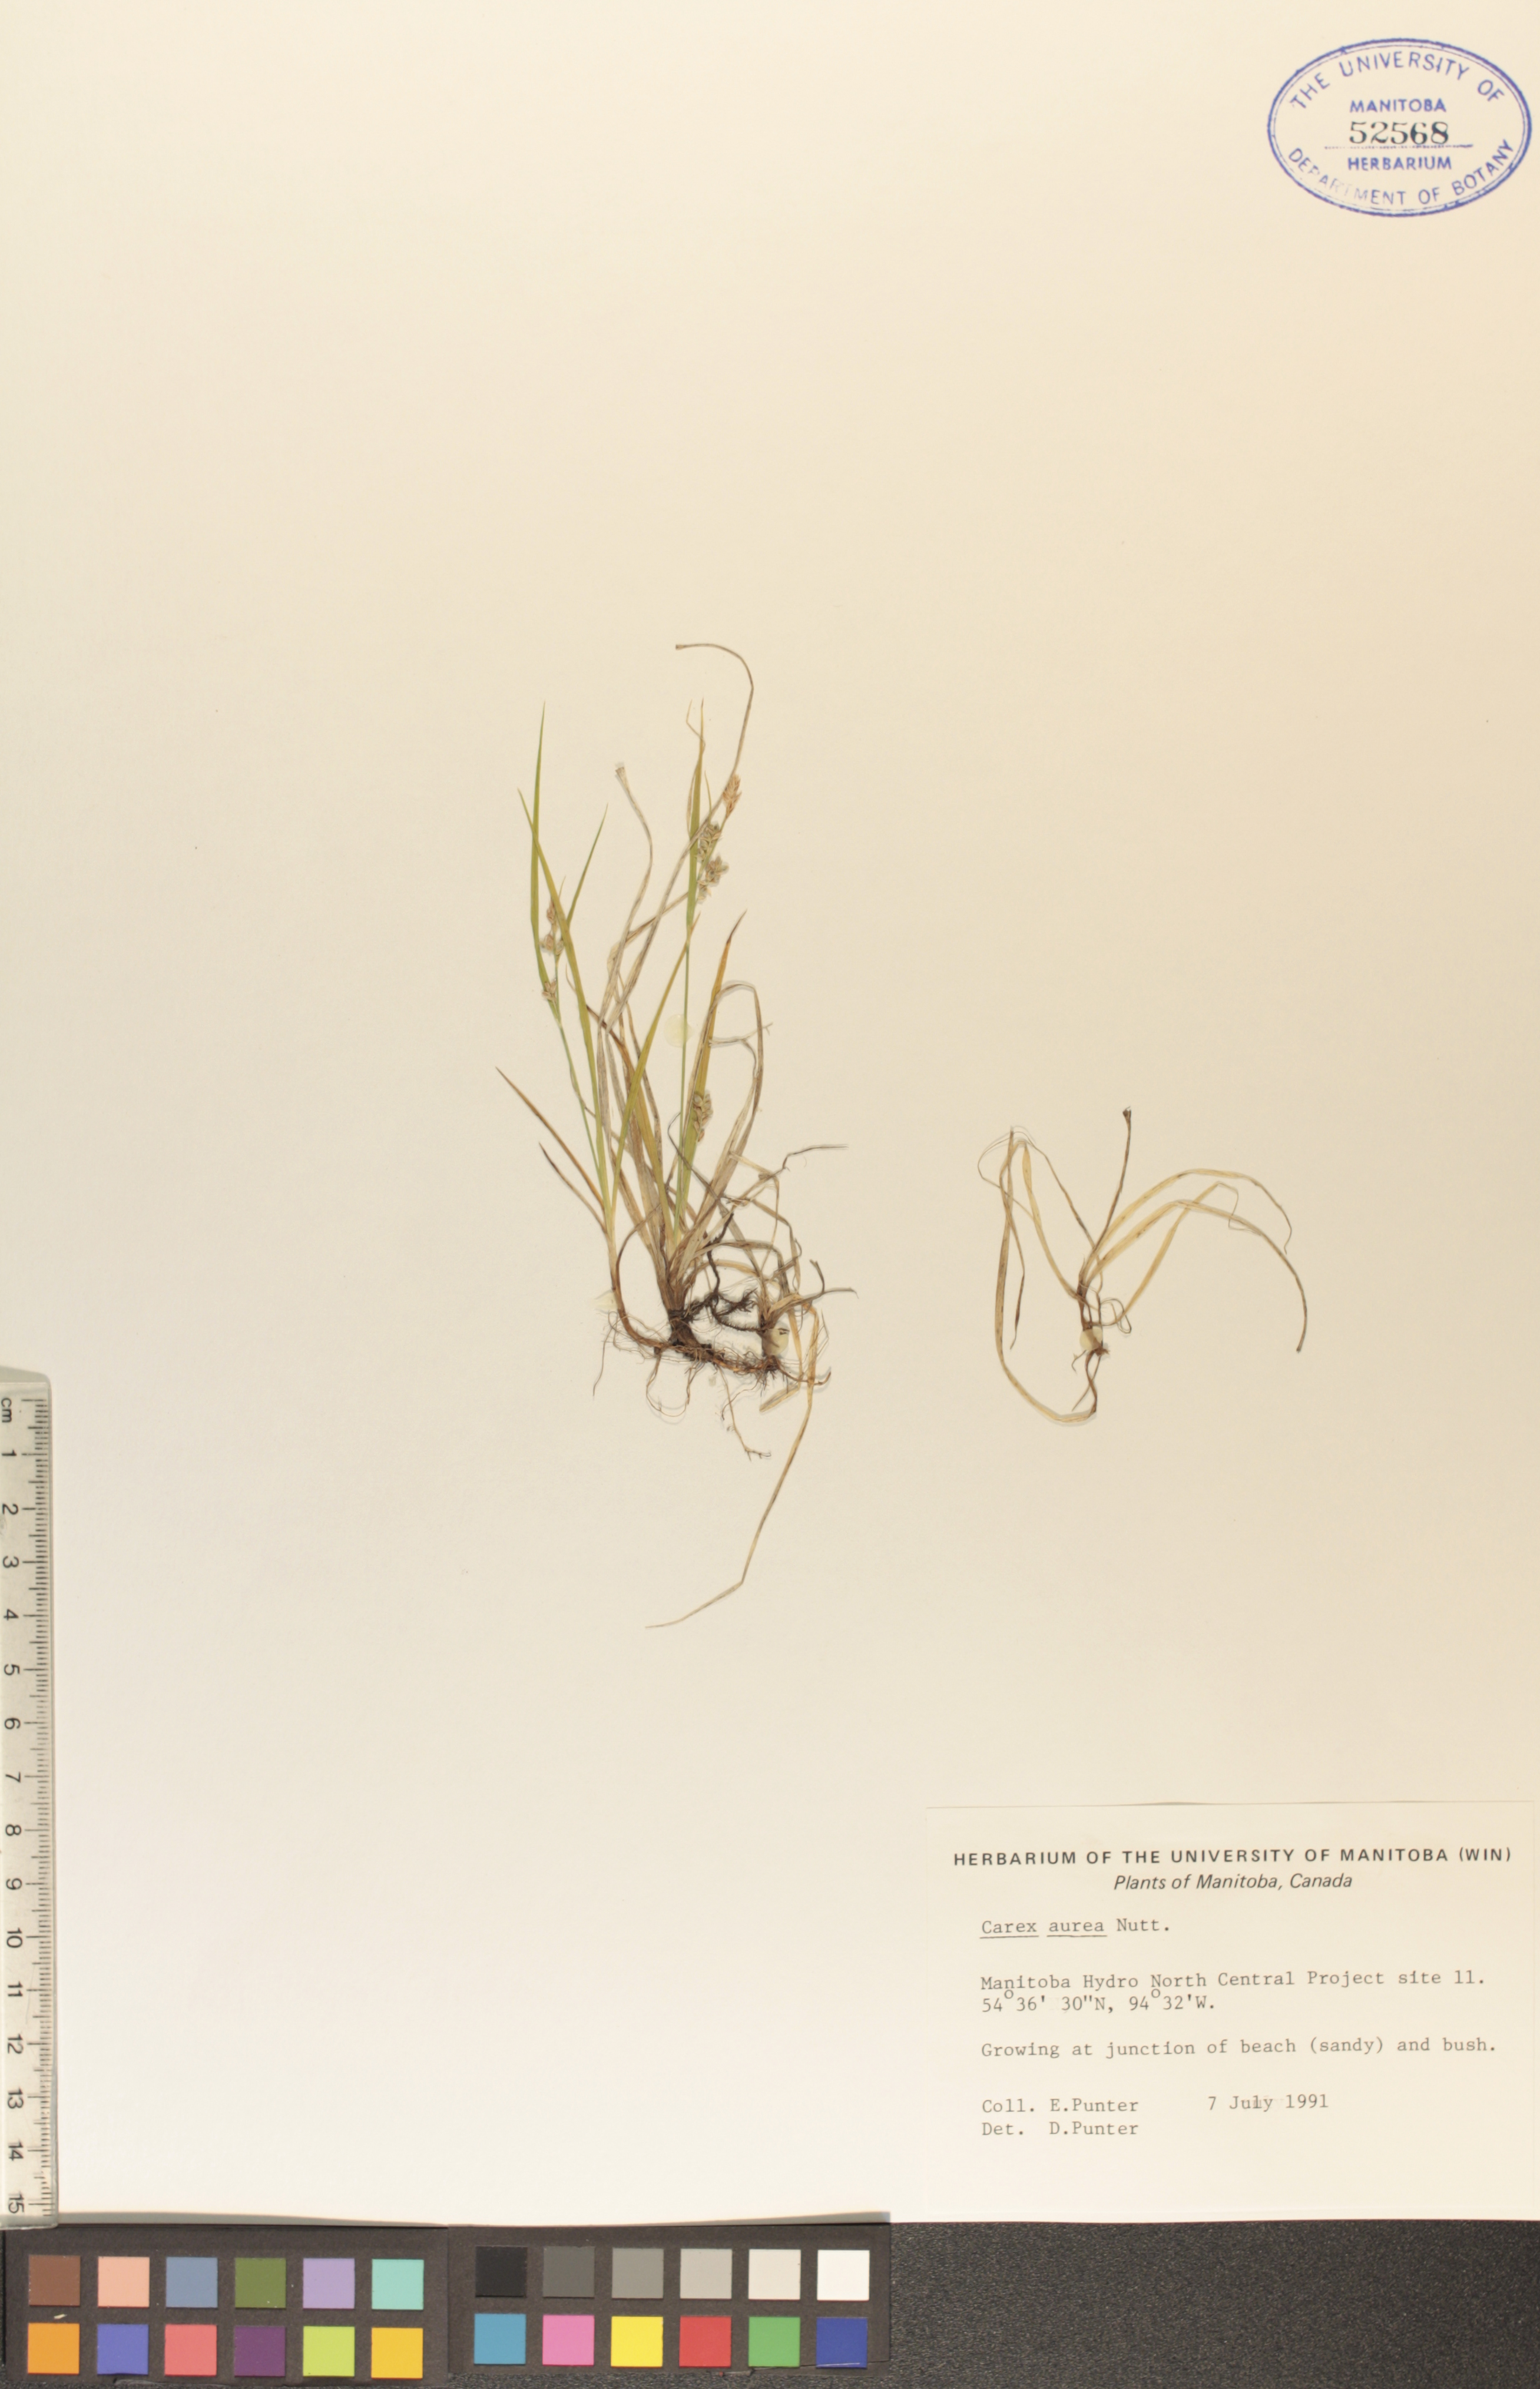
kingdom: Plantae
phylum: Tracheophyta
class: Liliopsida
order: Poales
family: Cyperaceae
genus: Carex
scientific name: Carex aurea
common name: Golden sedge
